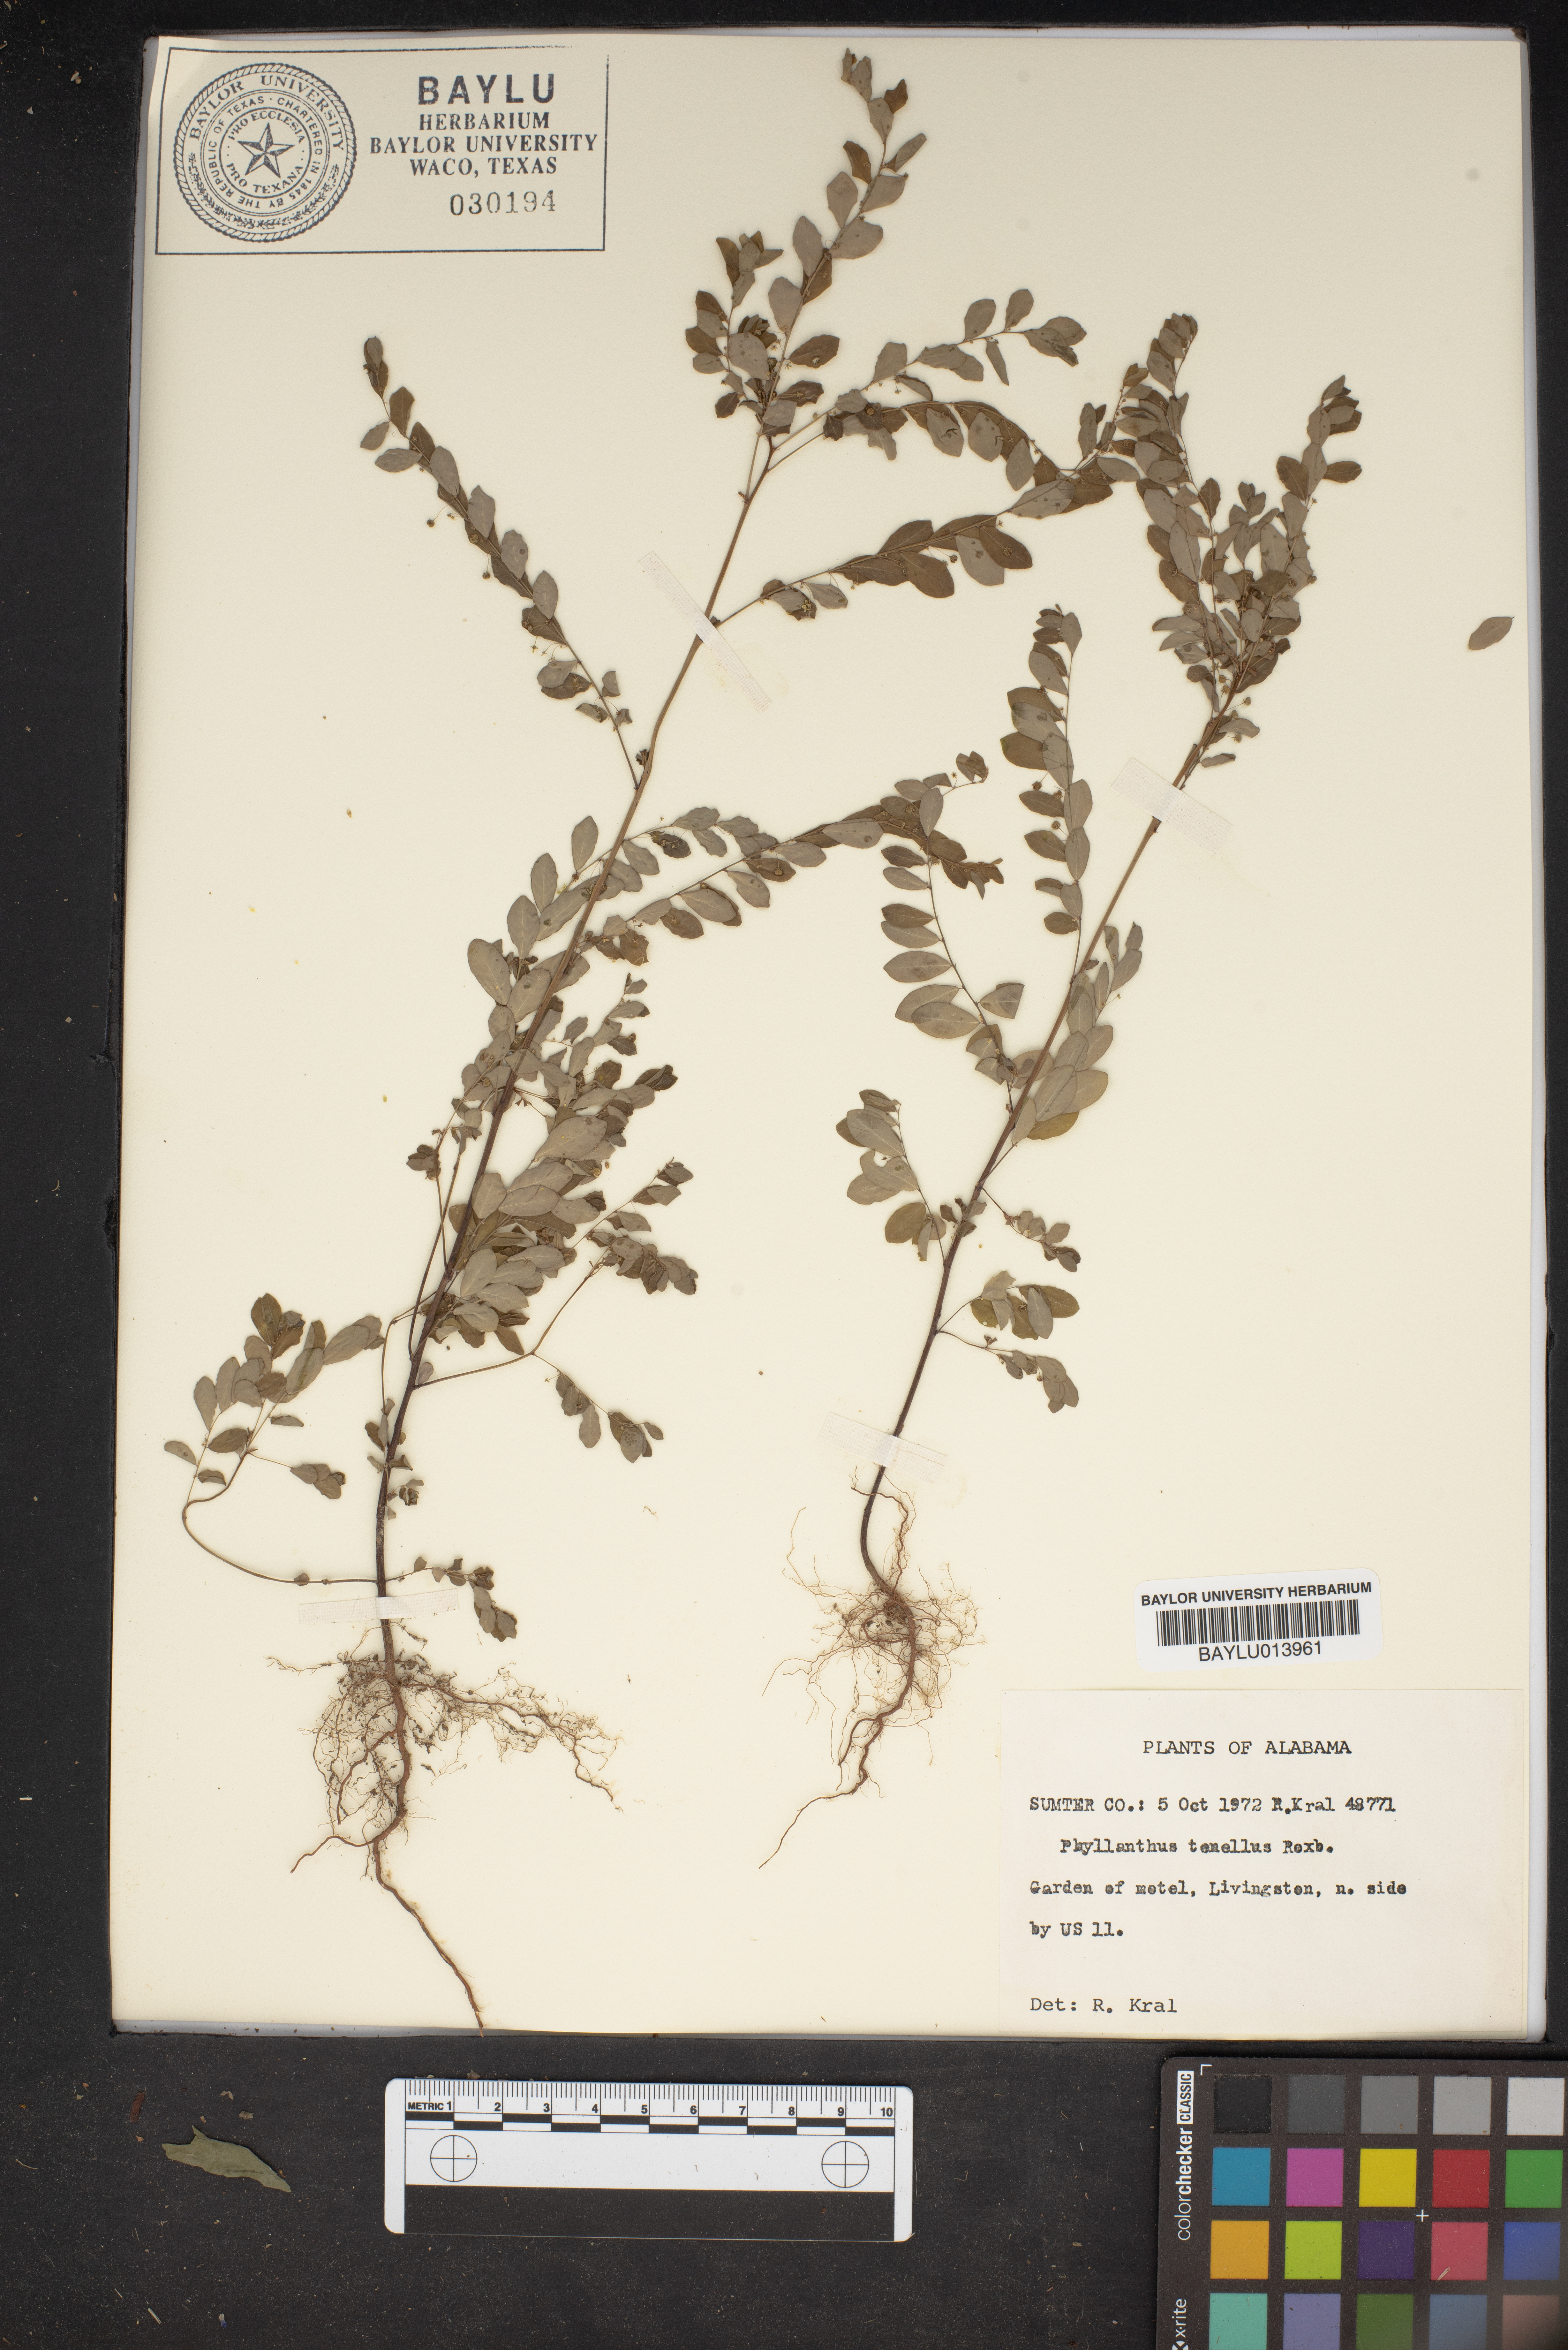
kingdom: Plantae
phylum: Tracheophyta
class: Magnoliopsida
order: Malpighiales
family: Phyllanthaceae
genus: Phyllanthus
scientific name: Phyllanthus tenellus
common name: Mascarene island leaf-flower
